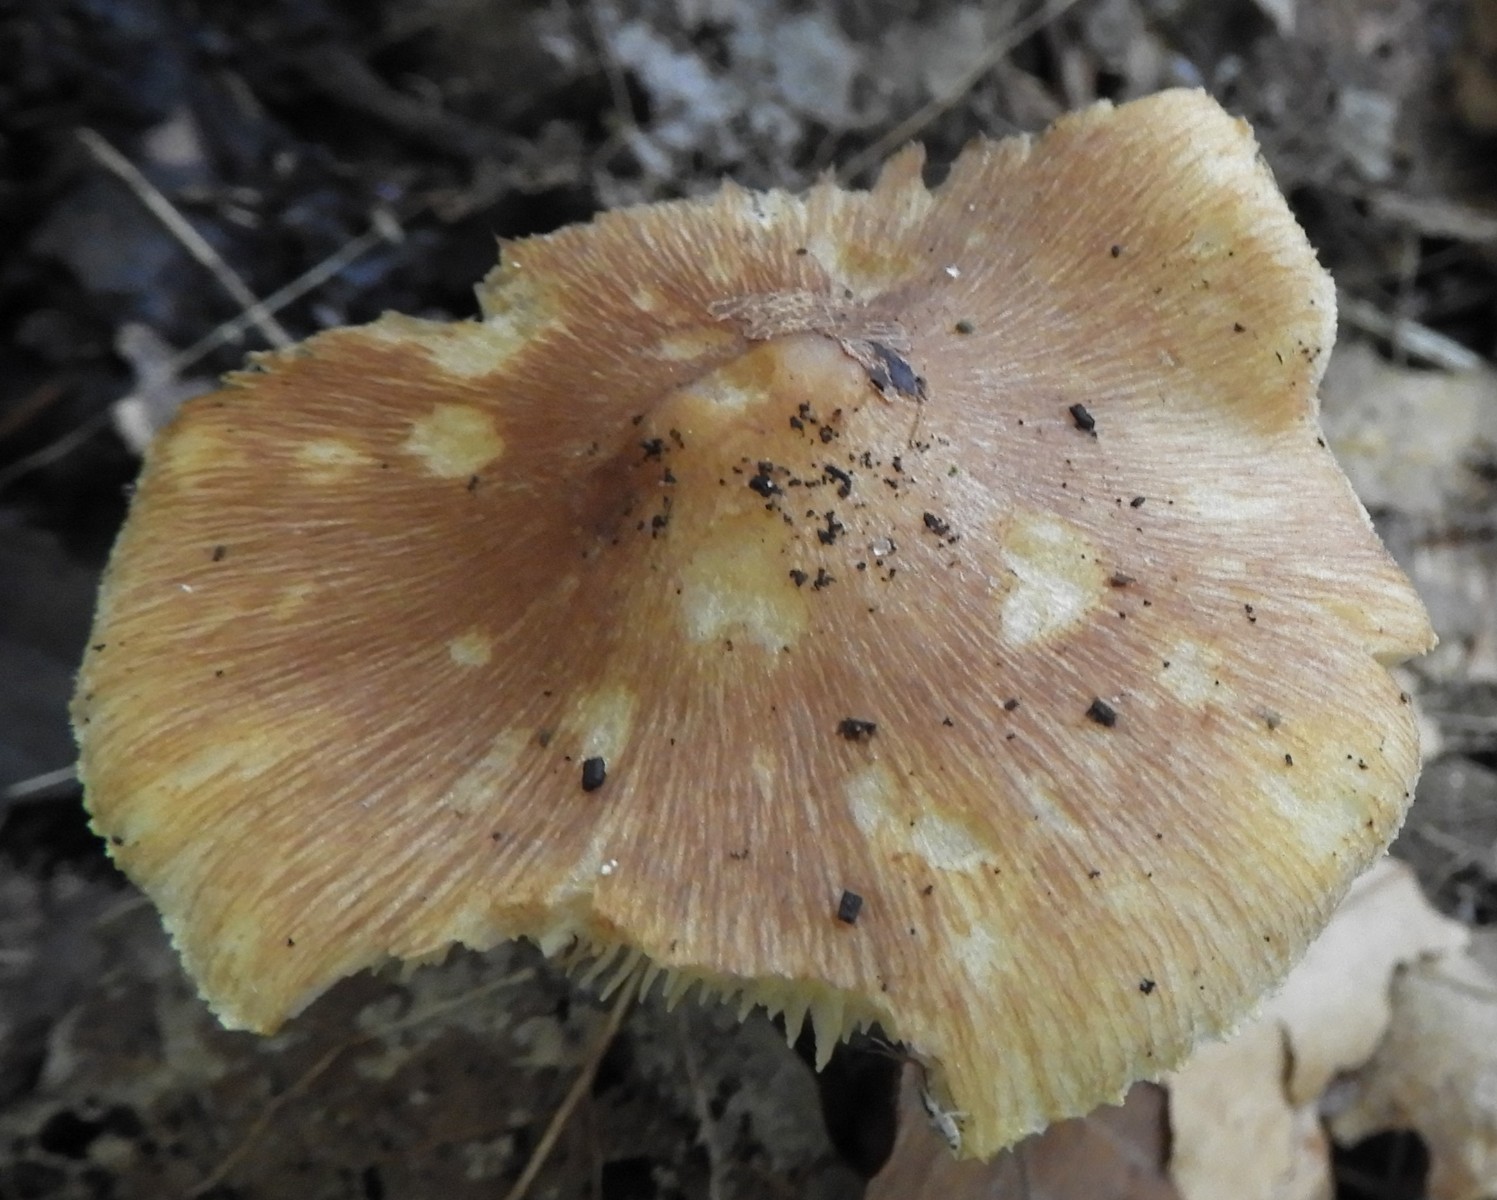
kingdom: Fungi
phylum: Basidiomycota
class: Agaricomycetes
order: Agaricales
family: Inocybaceae
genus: Inosperma
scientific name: Inosperma
